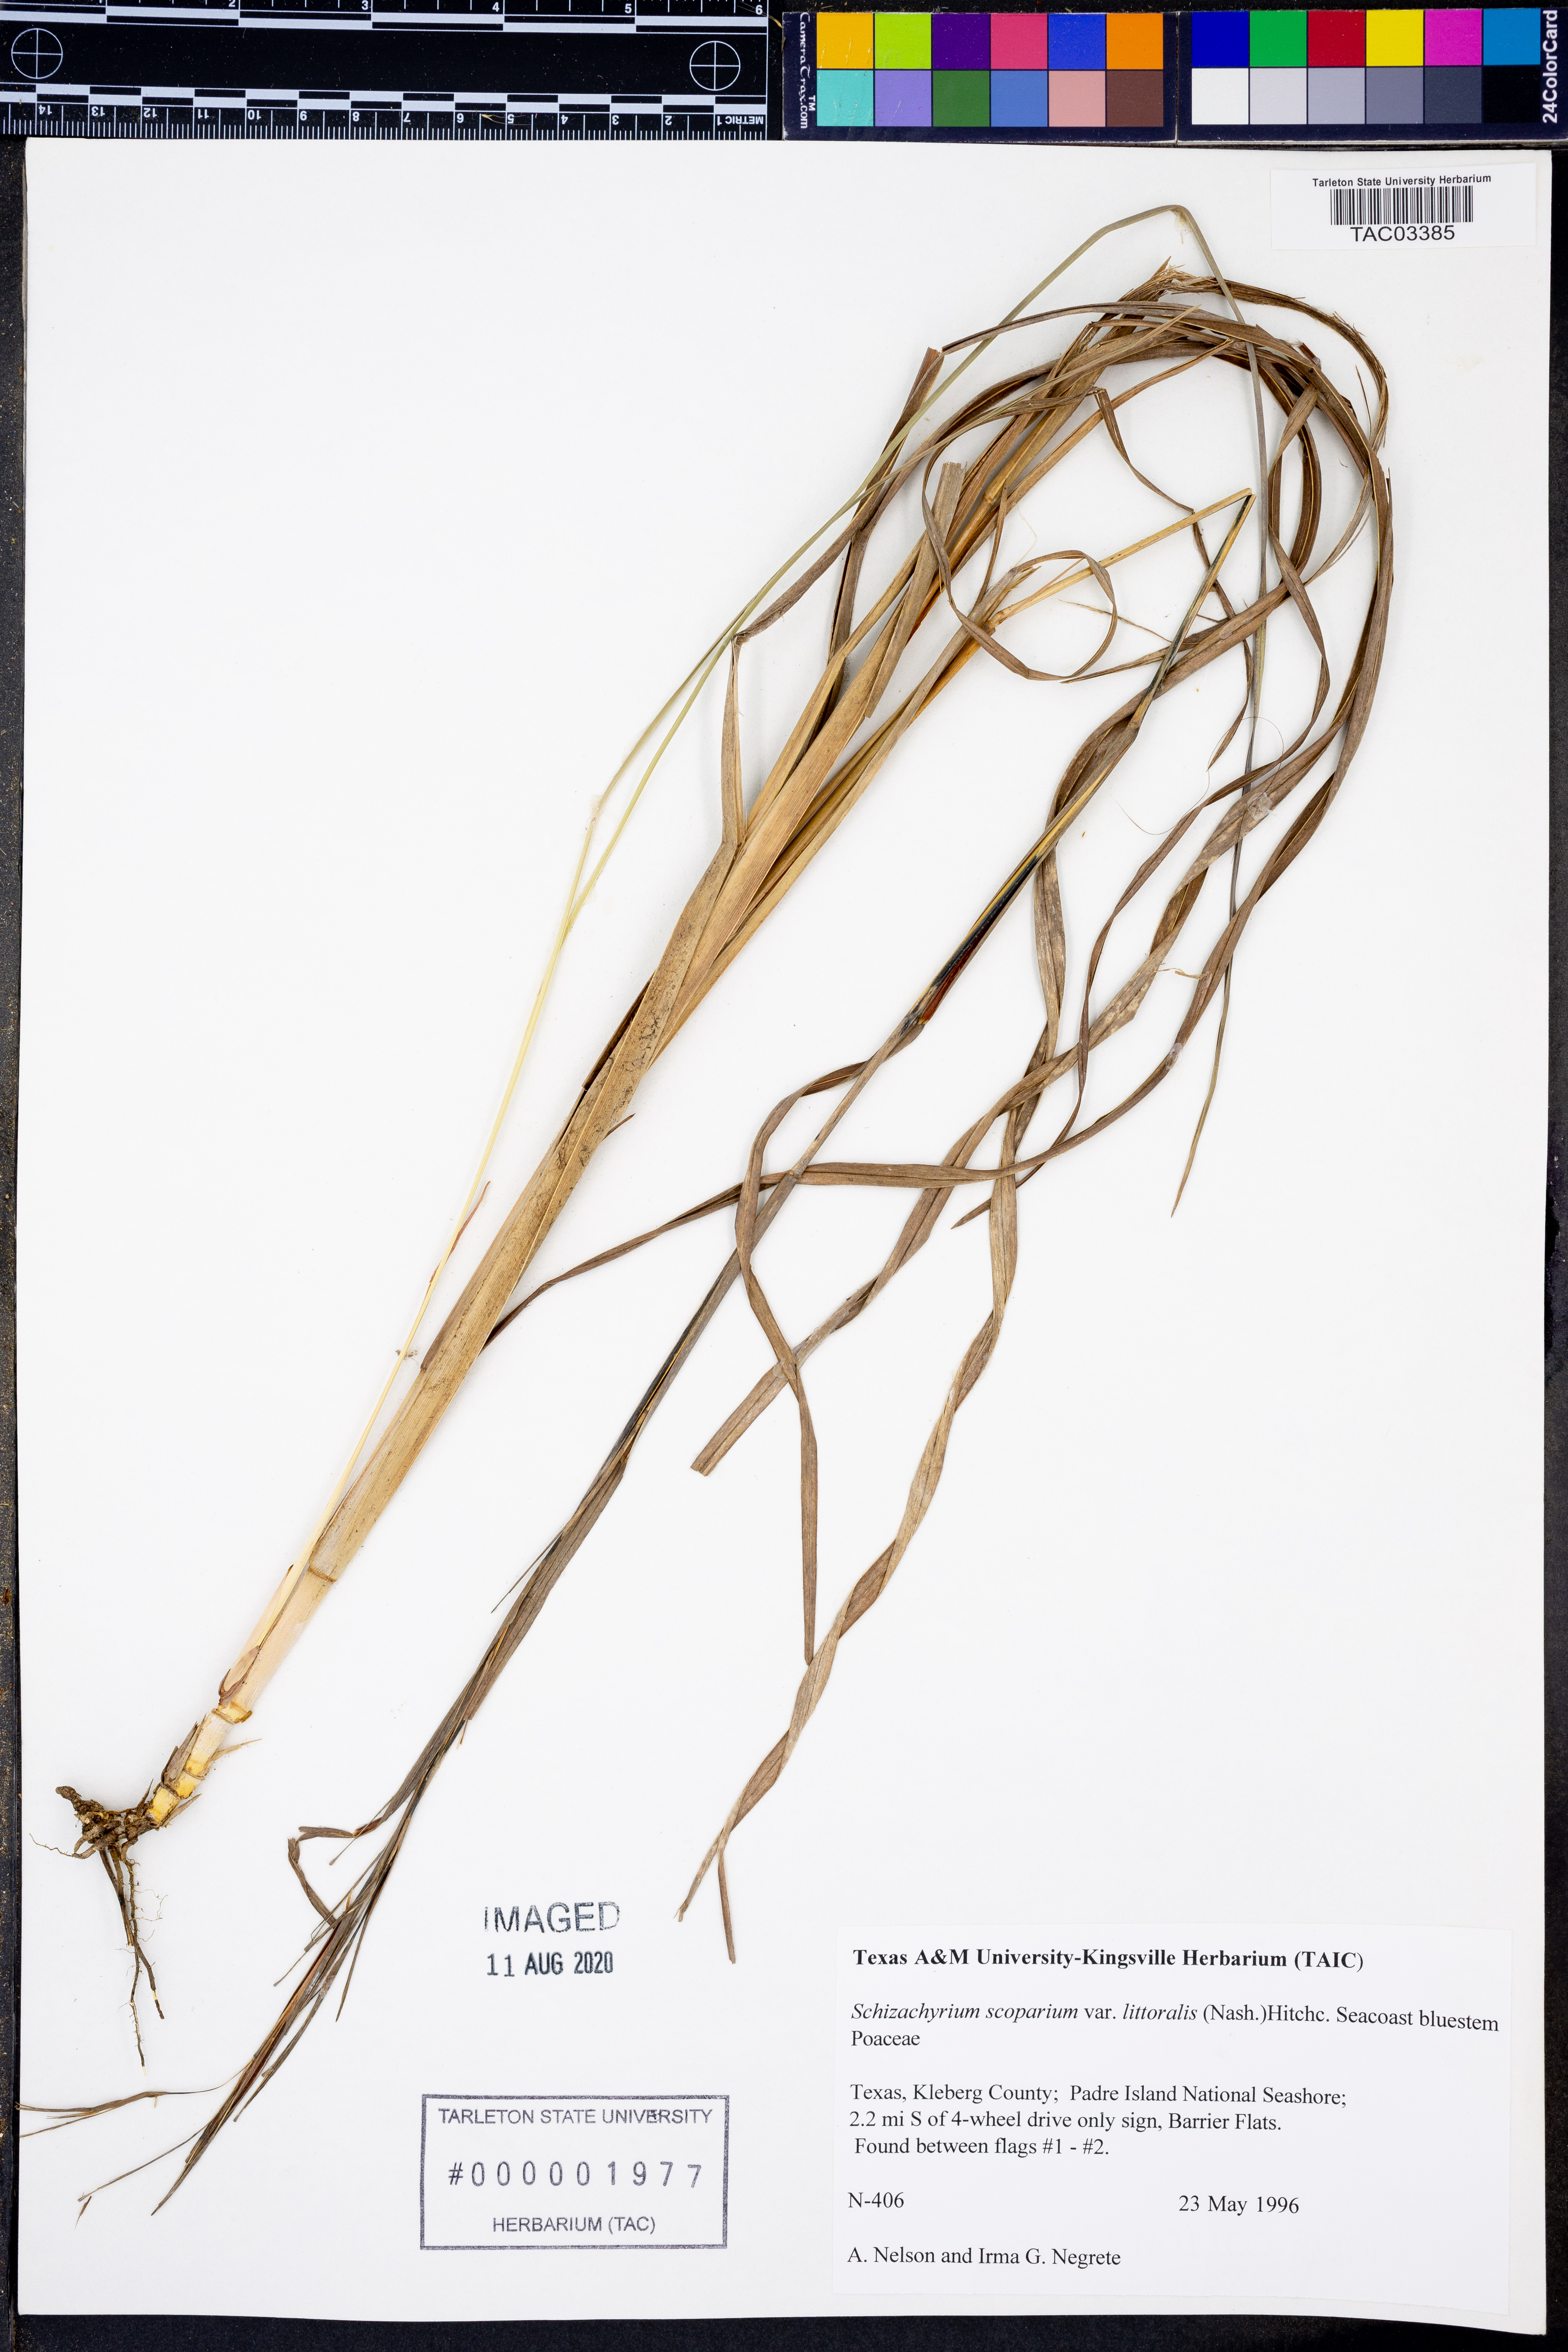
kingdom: Plantae
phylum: Tracheophyta
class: Liliopsida
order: Poales
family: Poaceae
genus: Schizachyrium
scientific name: Schizachyrium scoparium
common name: Little bluestem
